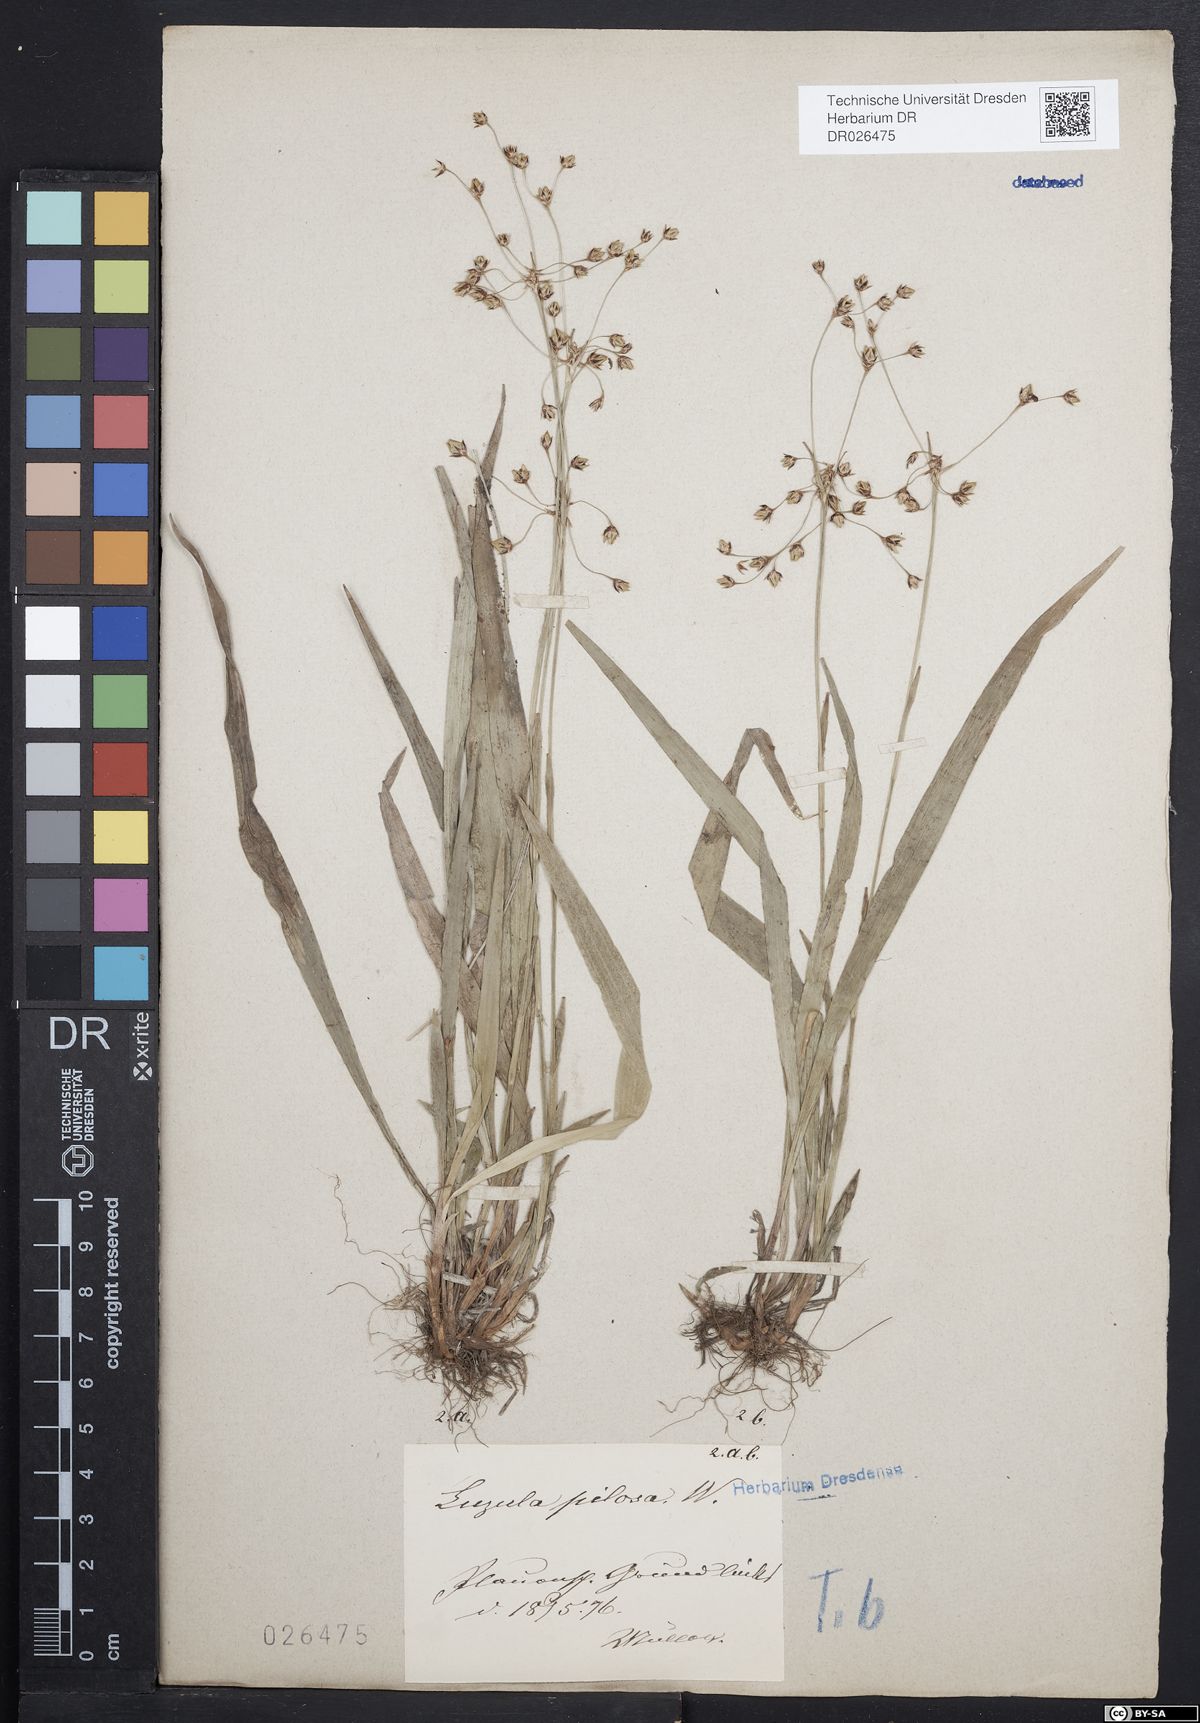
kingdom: Plantae
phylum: Tracheophyta
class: Liliopsida
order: Poales
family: Juncaceae
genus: Luzula
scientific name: Luzula pilosa
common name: Hairy wood-rush
